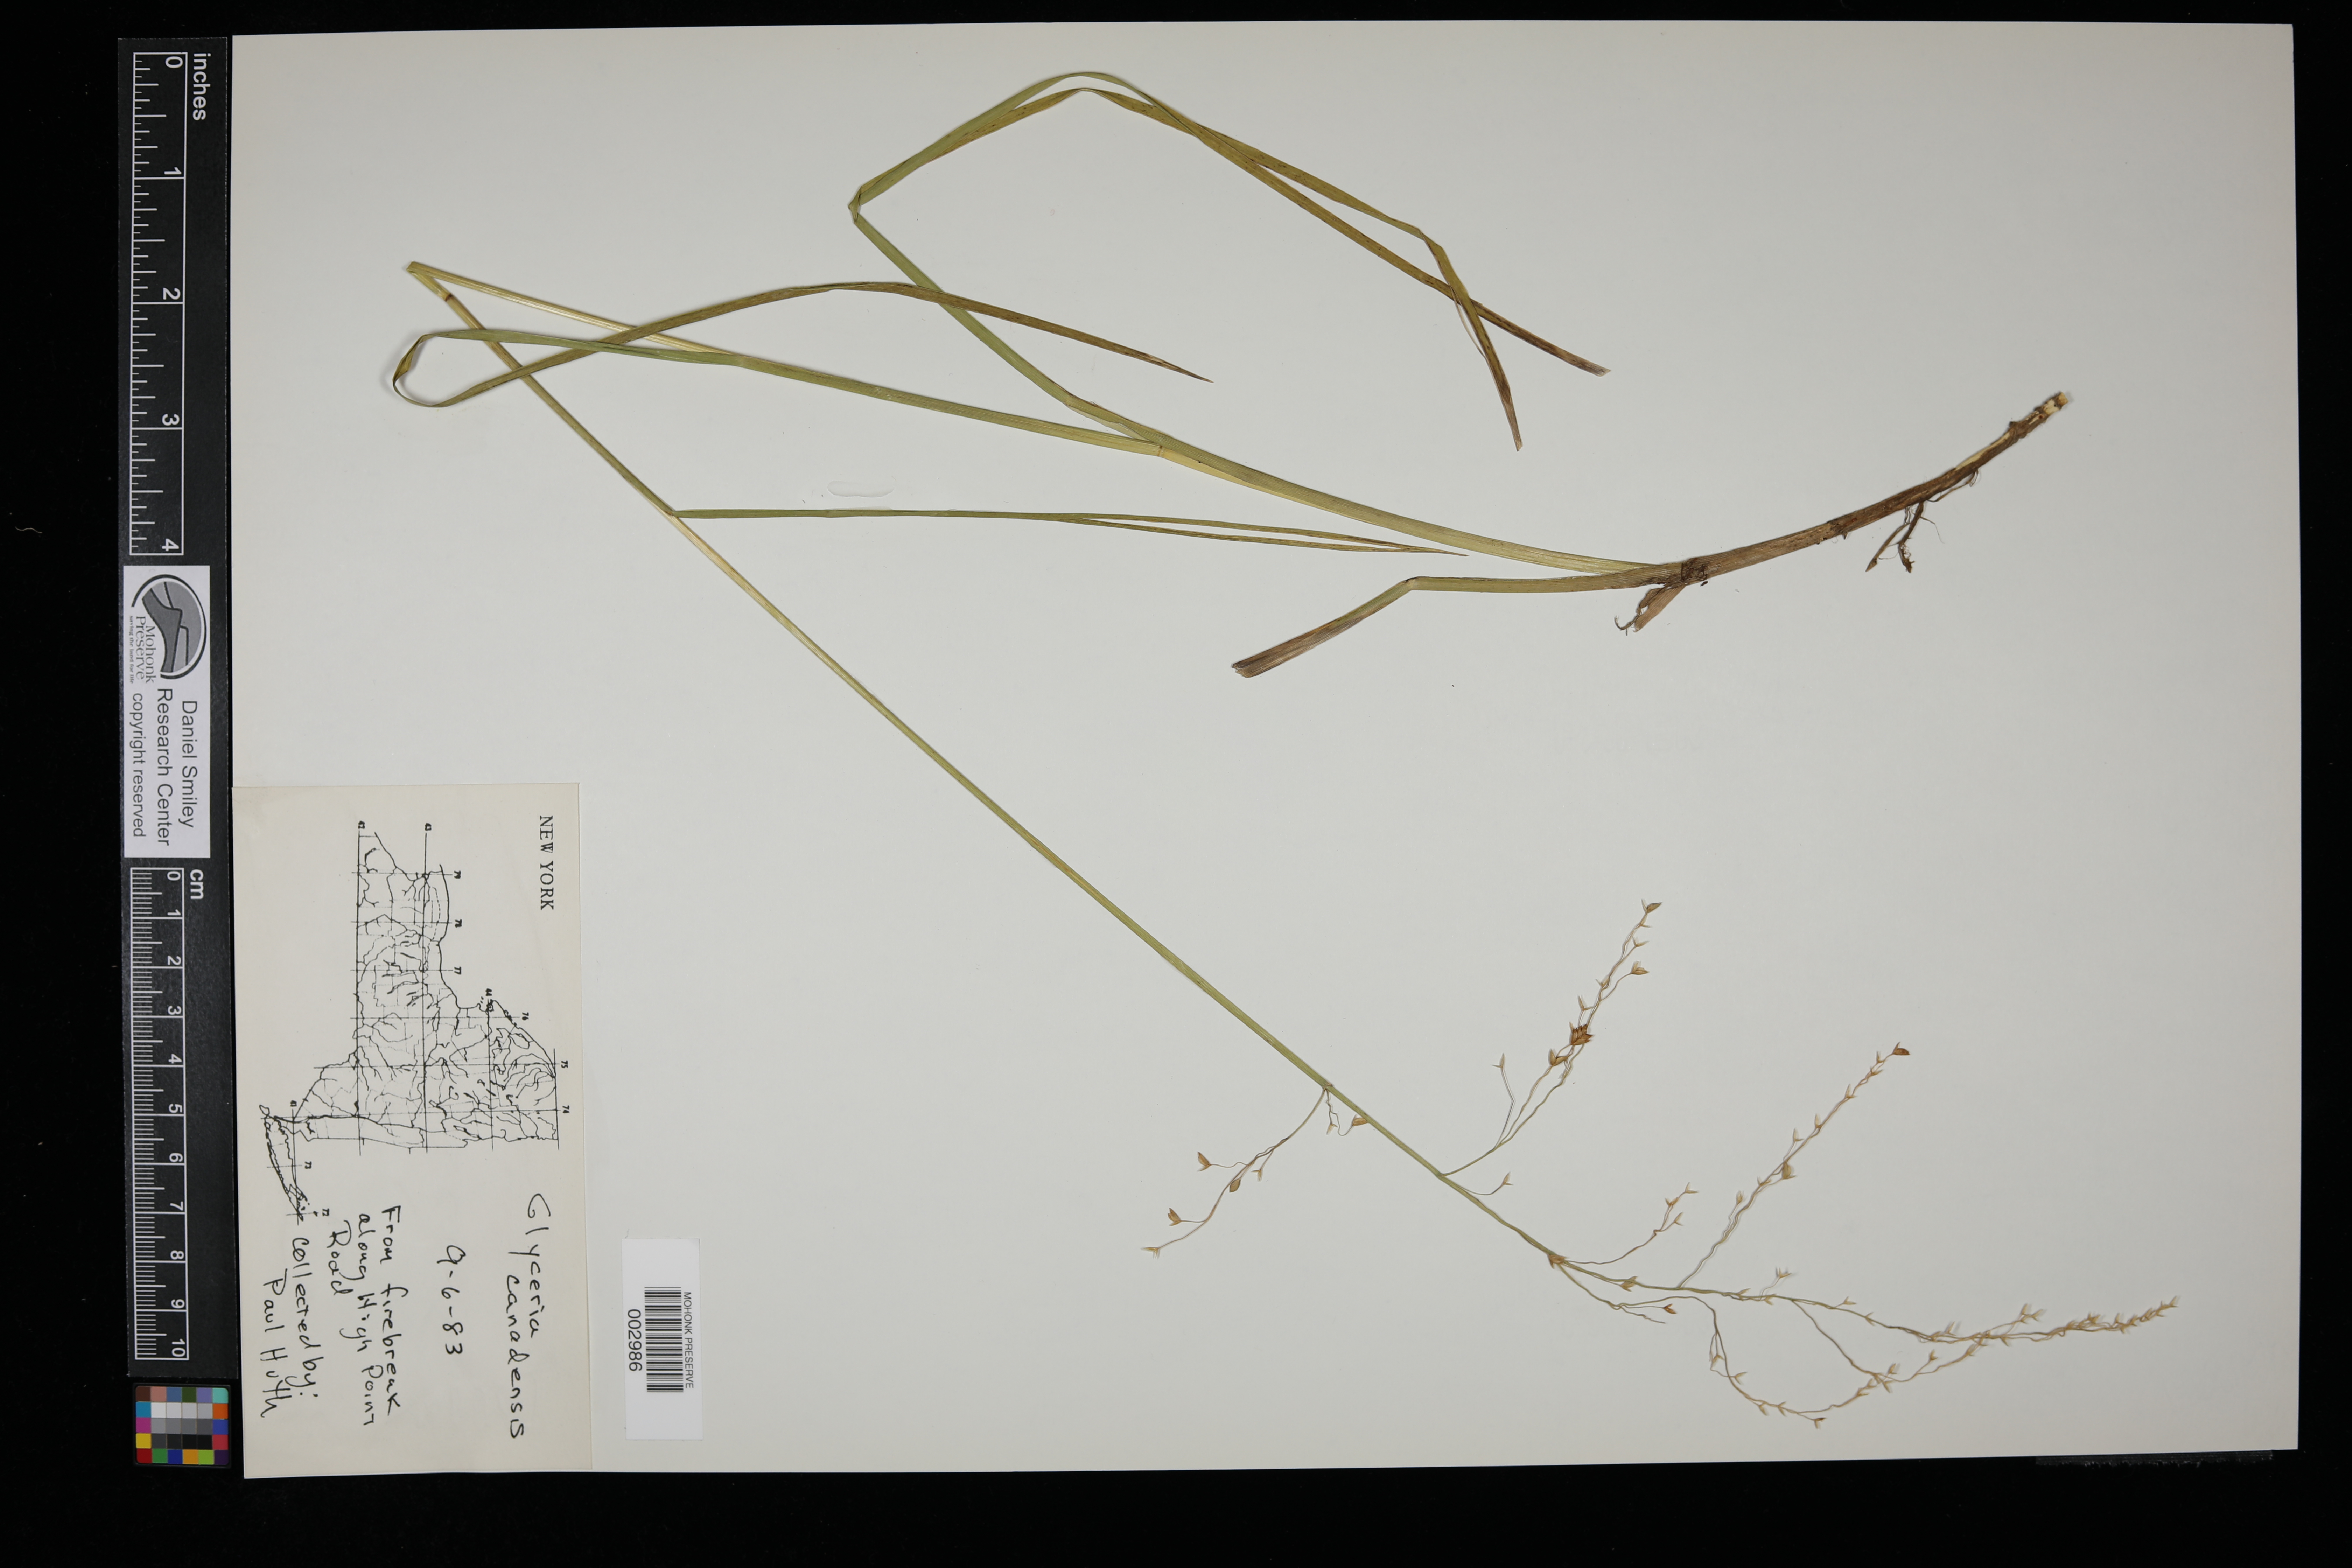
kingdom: Plantae
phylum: Tracheophyta
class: Liliopsida
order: Poales
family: Poaceae
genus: Glyceria
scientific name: Glyceria canadensis
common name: Canada mannagrass
